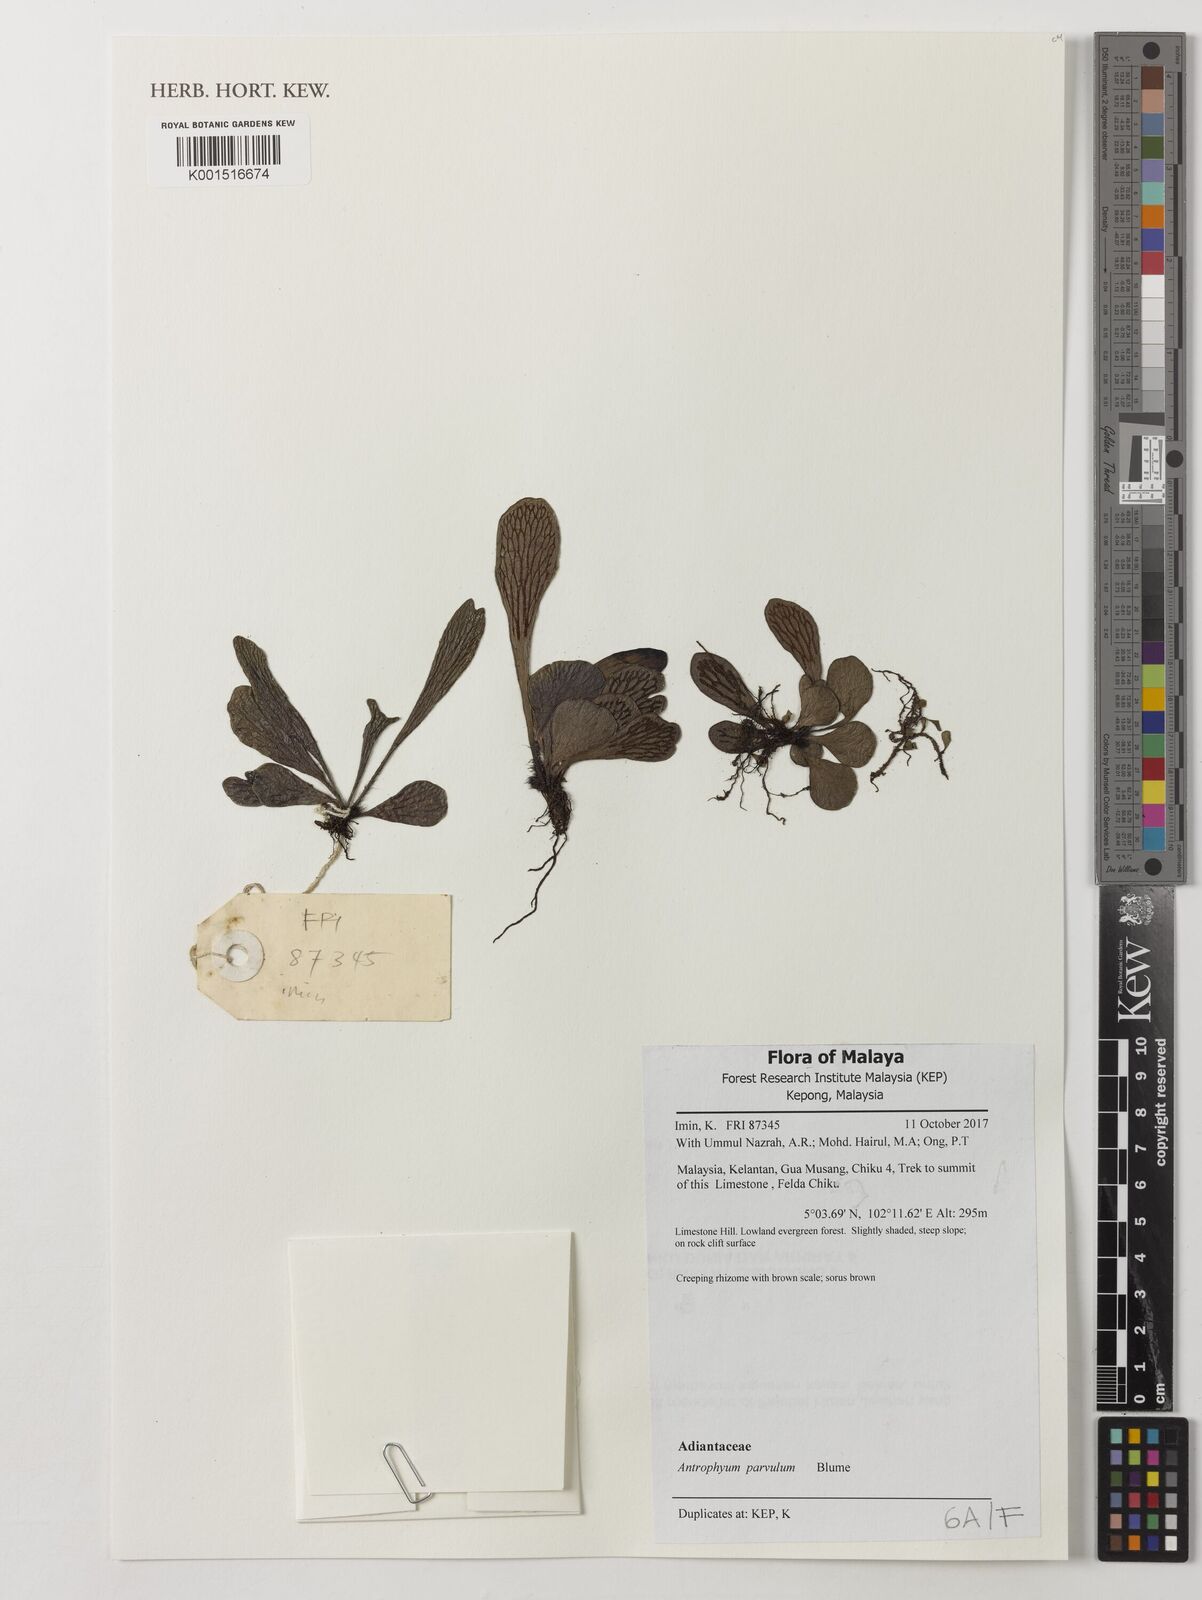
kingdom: Plantae
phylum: Tracheophyta
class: Polypodiopsida
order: Polypodiales
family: Pteridaceae
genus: Antrophyum
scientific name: Antrophyum parvulum
